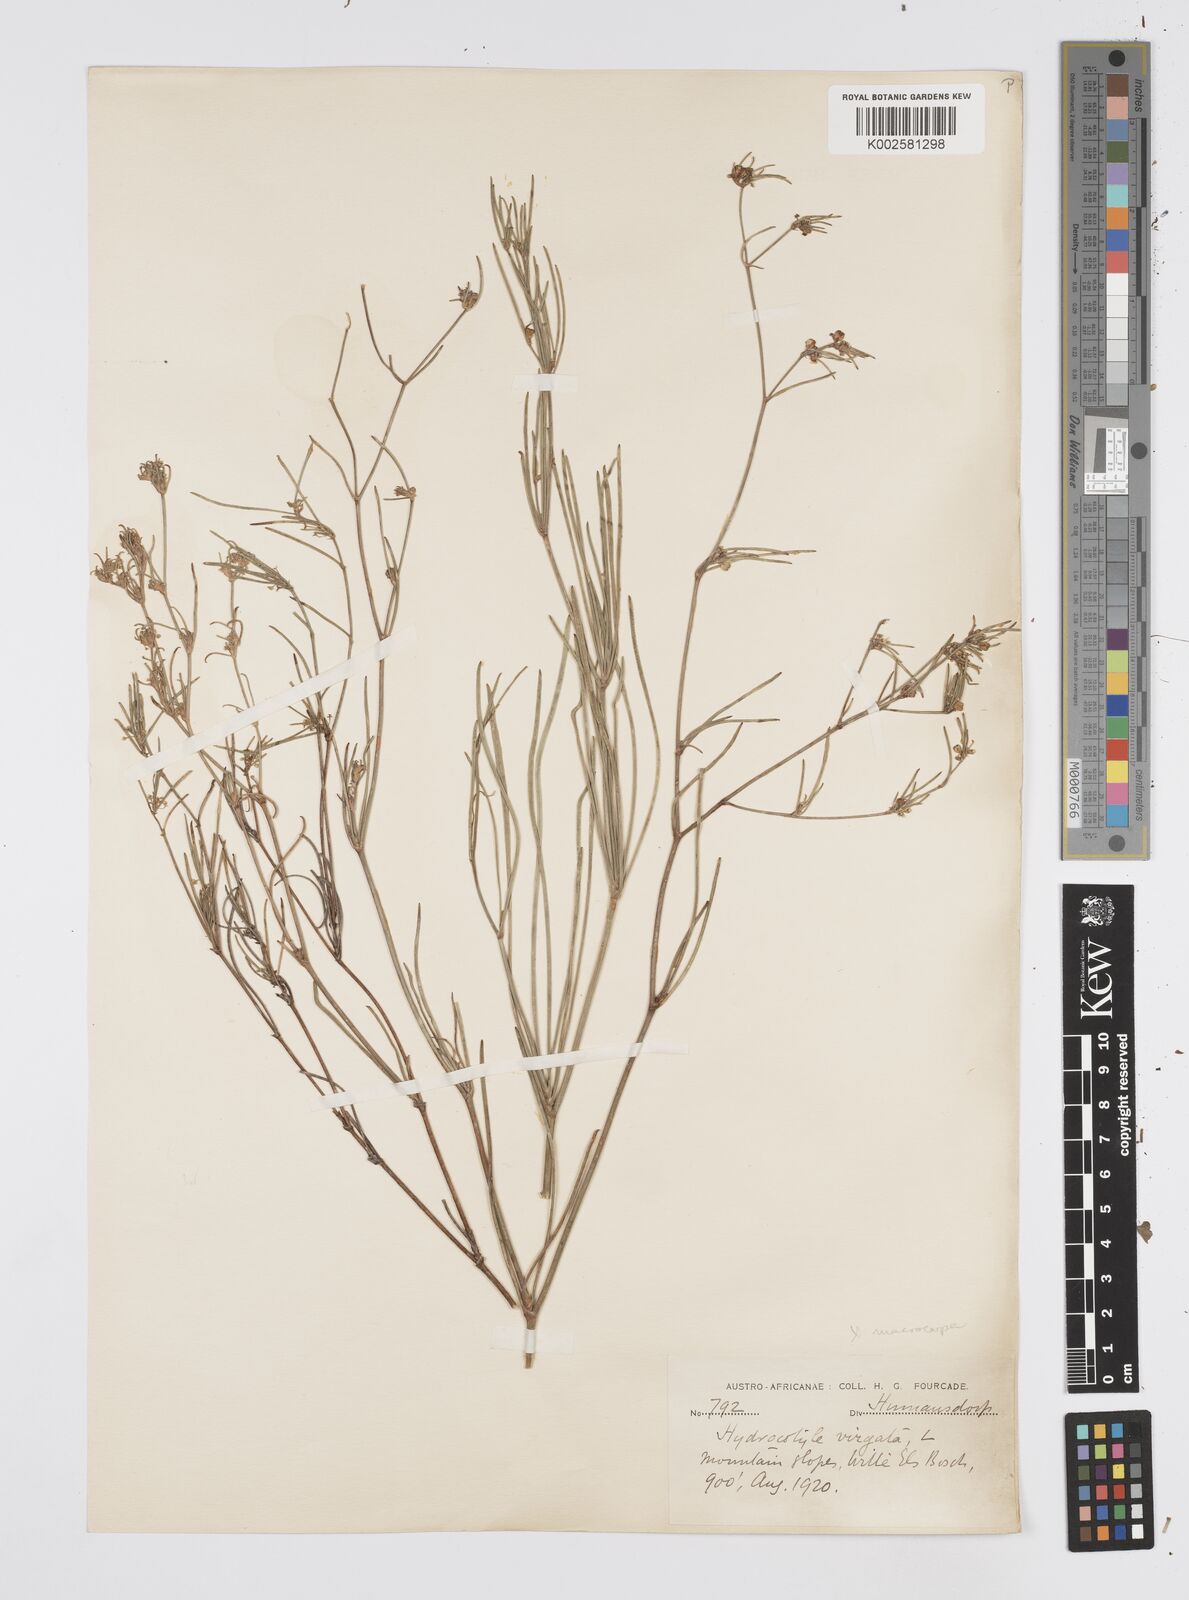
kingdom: Plantae
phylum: Tracheophyta
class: Magnoliopsida
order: Apiales
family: Apiaceae
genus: Centella
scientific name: Centella macrocarpa
